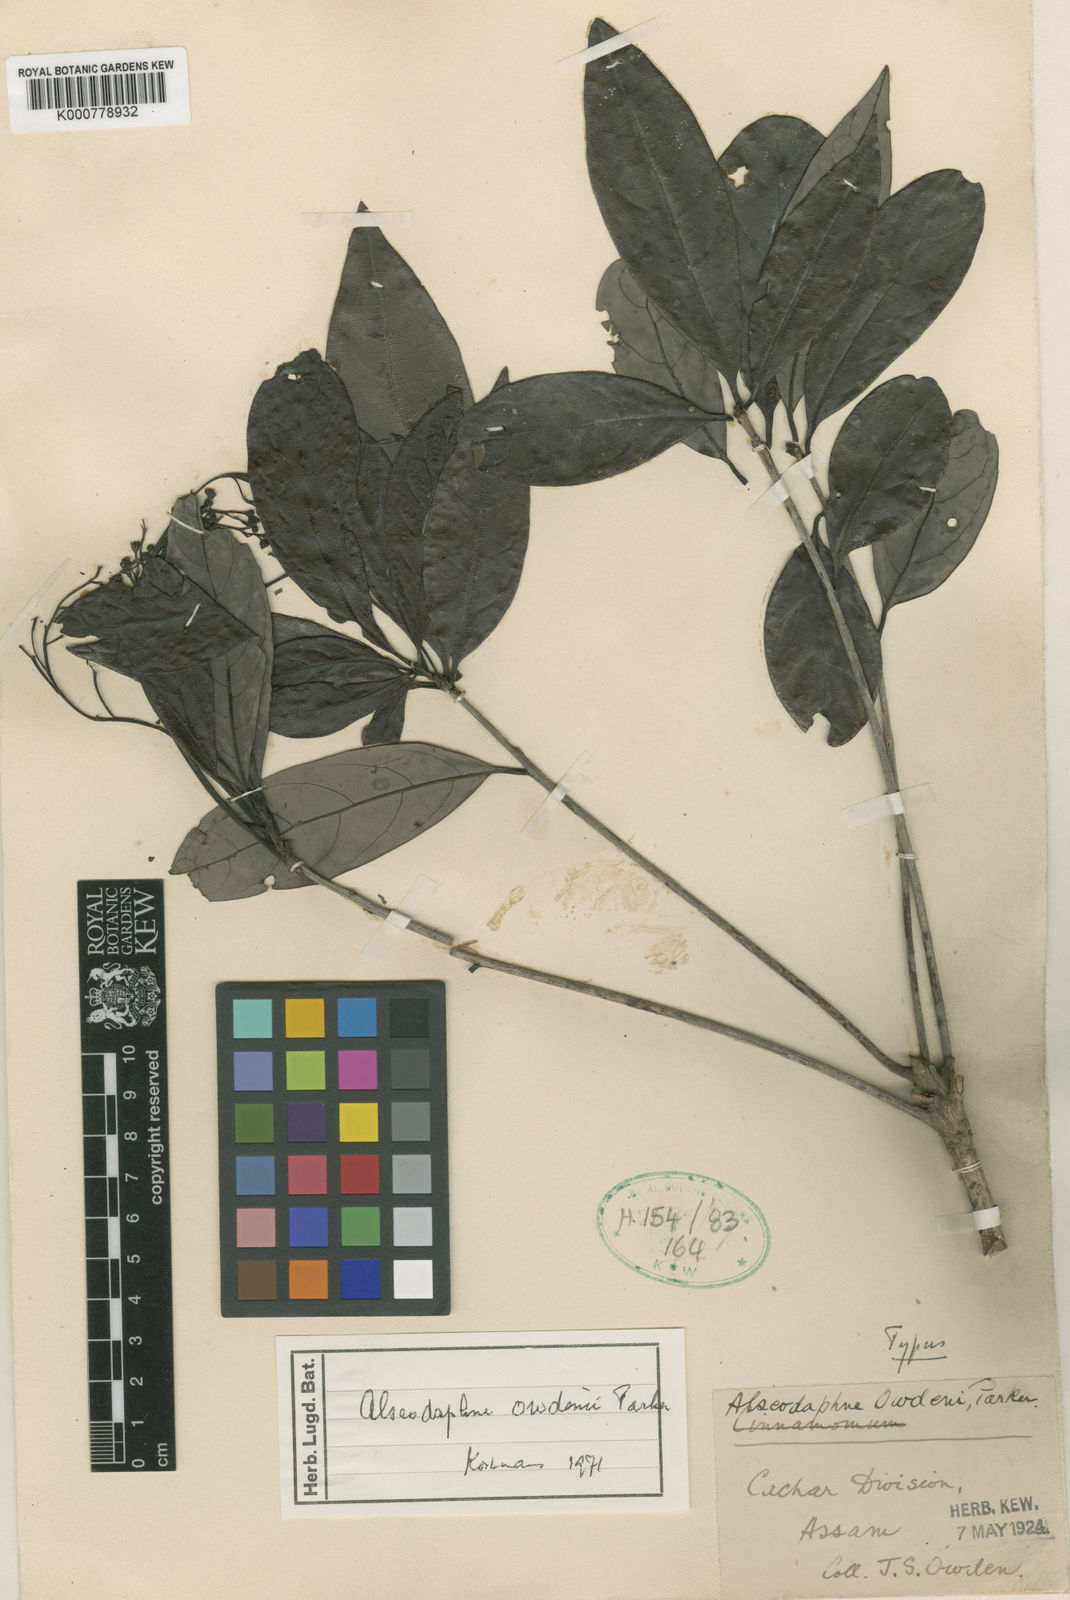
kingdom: Plantae
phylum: Tracheophyta
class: Magnoliopsida
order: Laurales
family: Lauraceae
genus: Alseodaphne
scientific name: Alseodaphne owdenii
